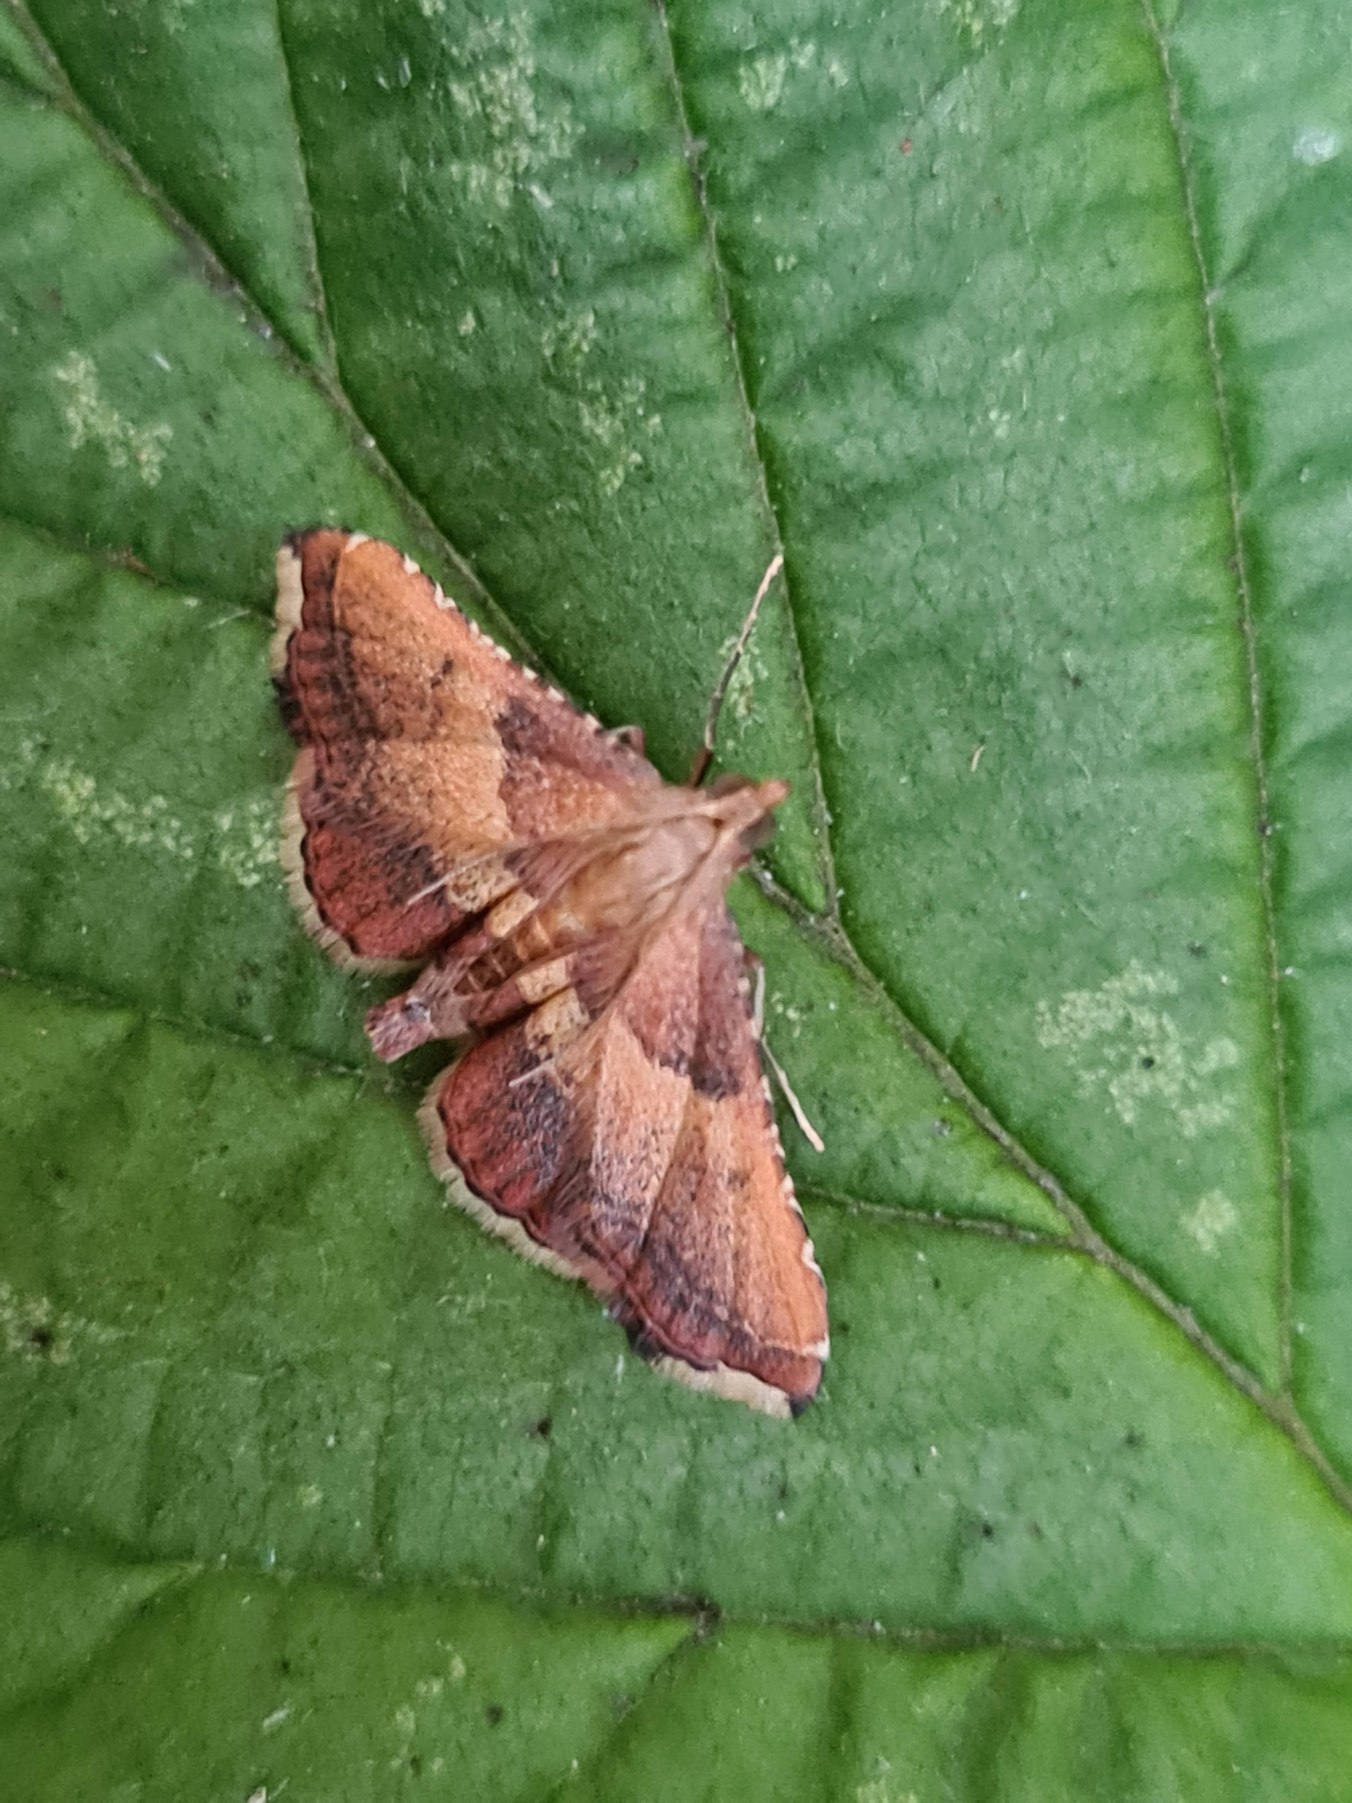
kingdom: Animalia
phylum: Arthropoda
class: Insecta
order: Lepidoptera
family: Pyralidae
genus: Endotricha
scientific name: Endotricha flammealis
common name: Løvkrathalvmøl
